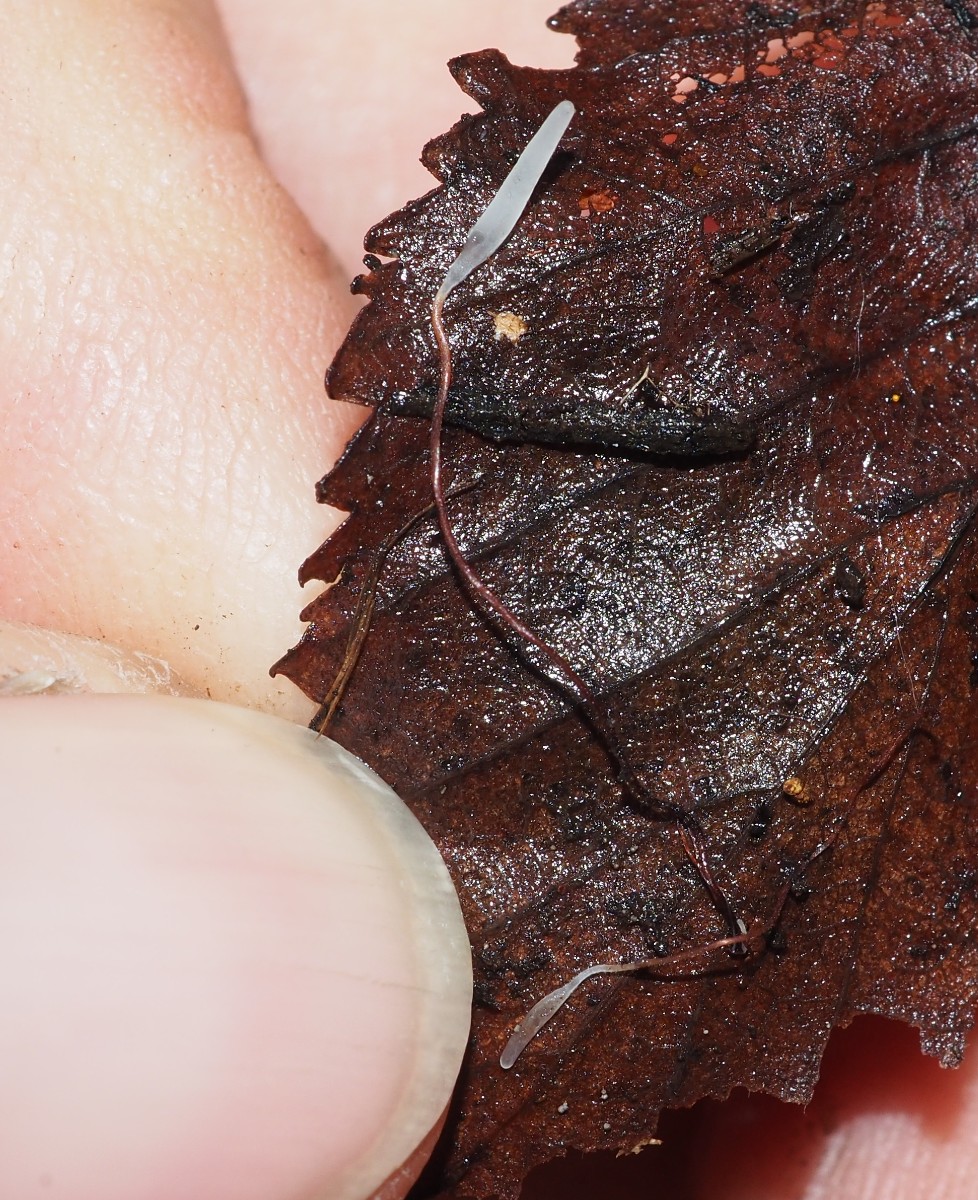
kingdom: Fungi
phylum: Basidiomycota
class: Agaricomycetes
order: Agaricales
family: Typhulaceae
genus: Typhula
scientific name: Typhula erythropus
